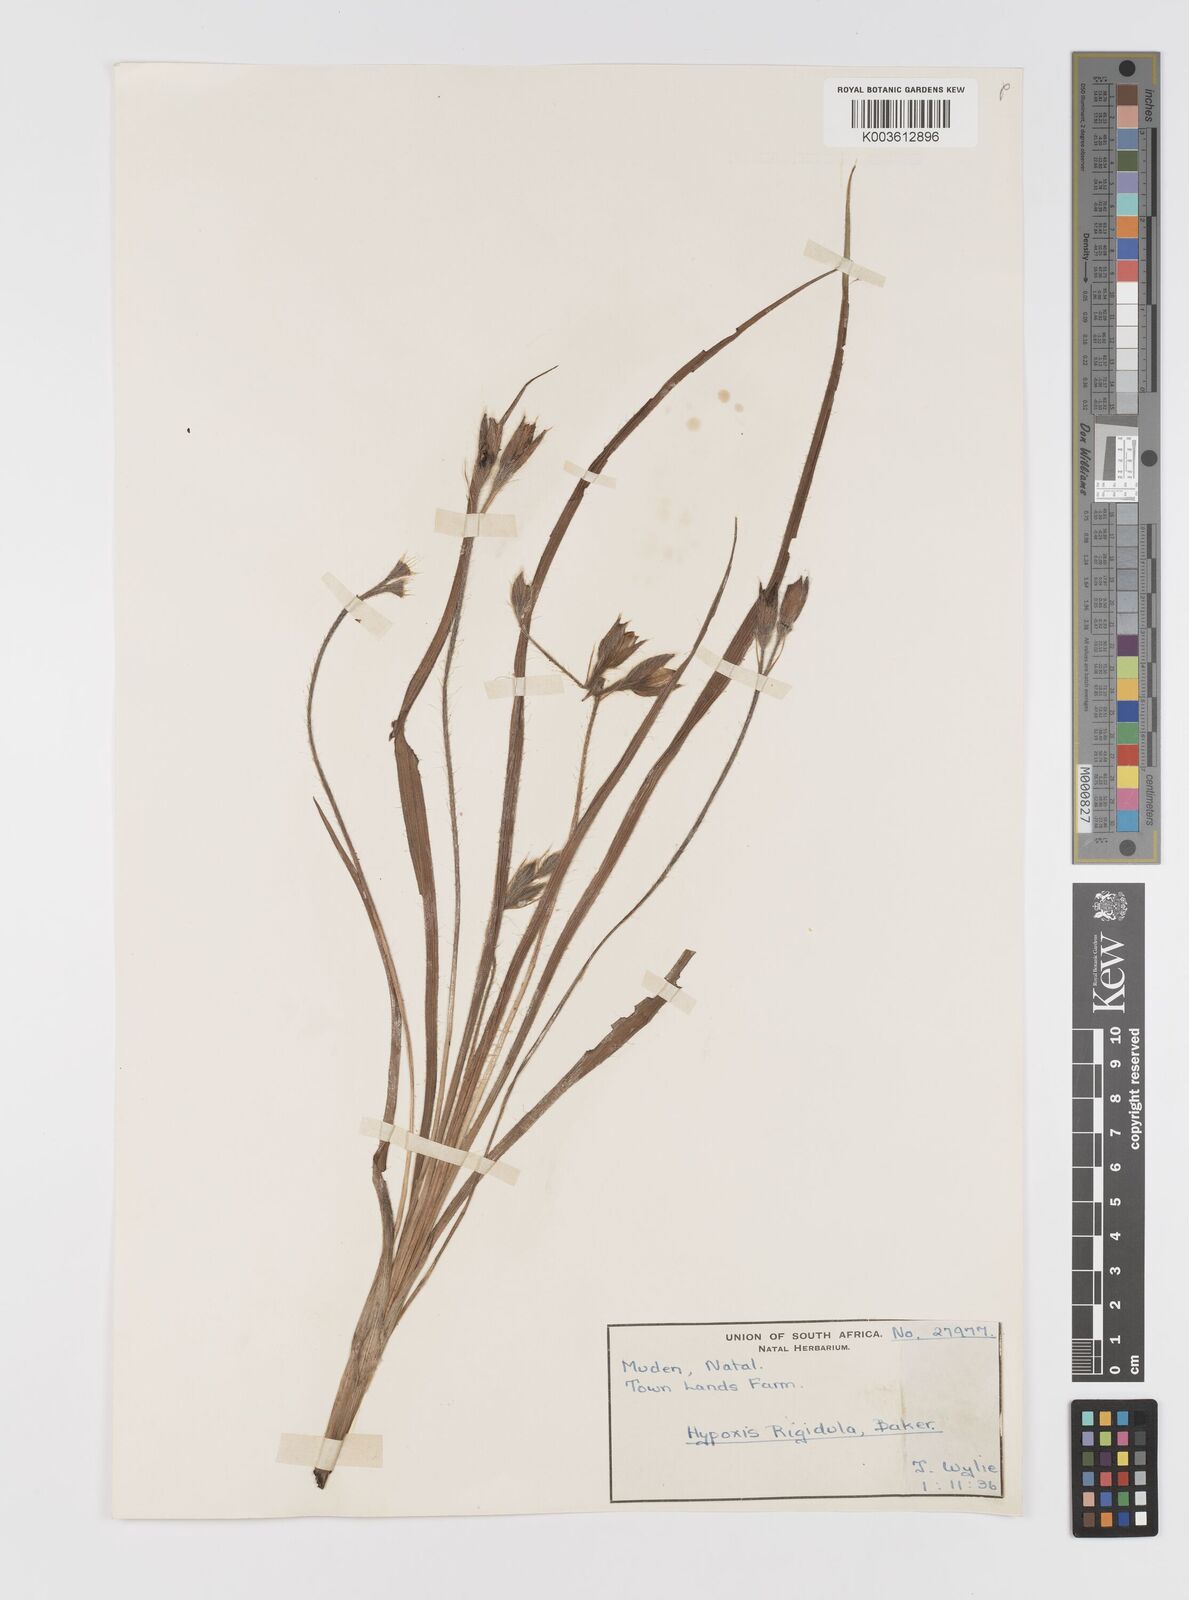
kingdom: Plantae
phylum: Tracheophyta
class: Liliopsida
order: Asparagales
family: Hypoxidaceae
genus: Hypoxis
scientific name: Hypoxis acuminata
